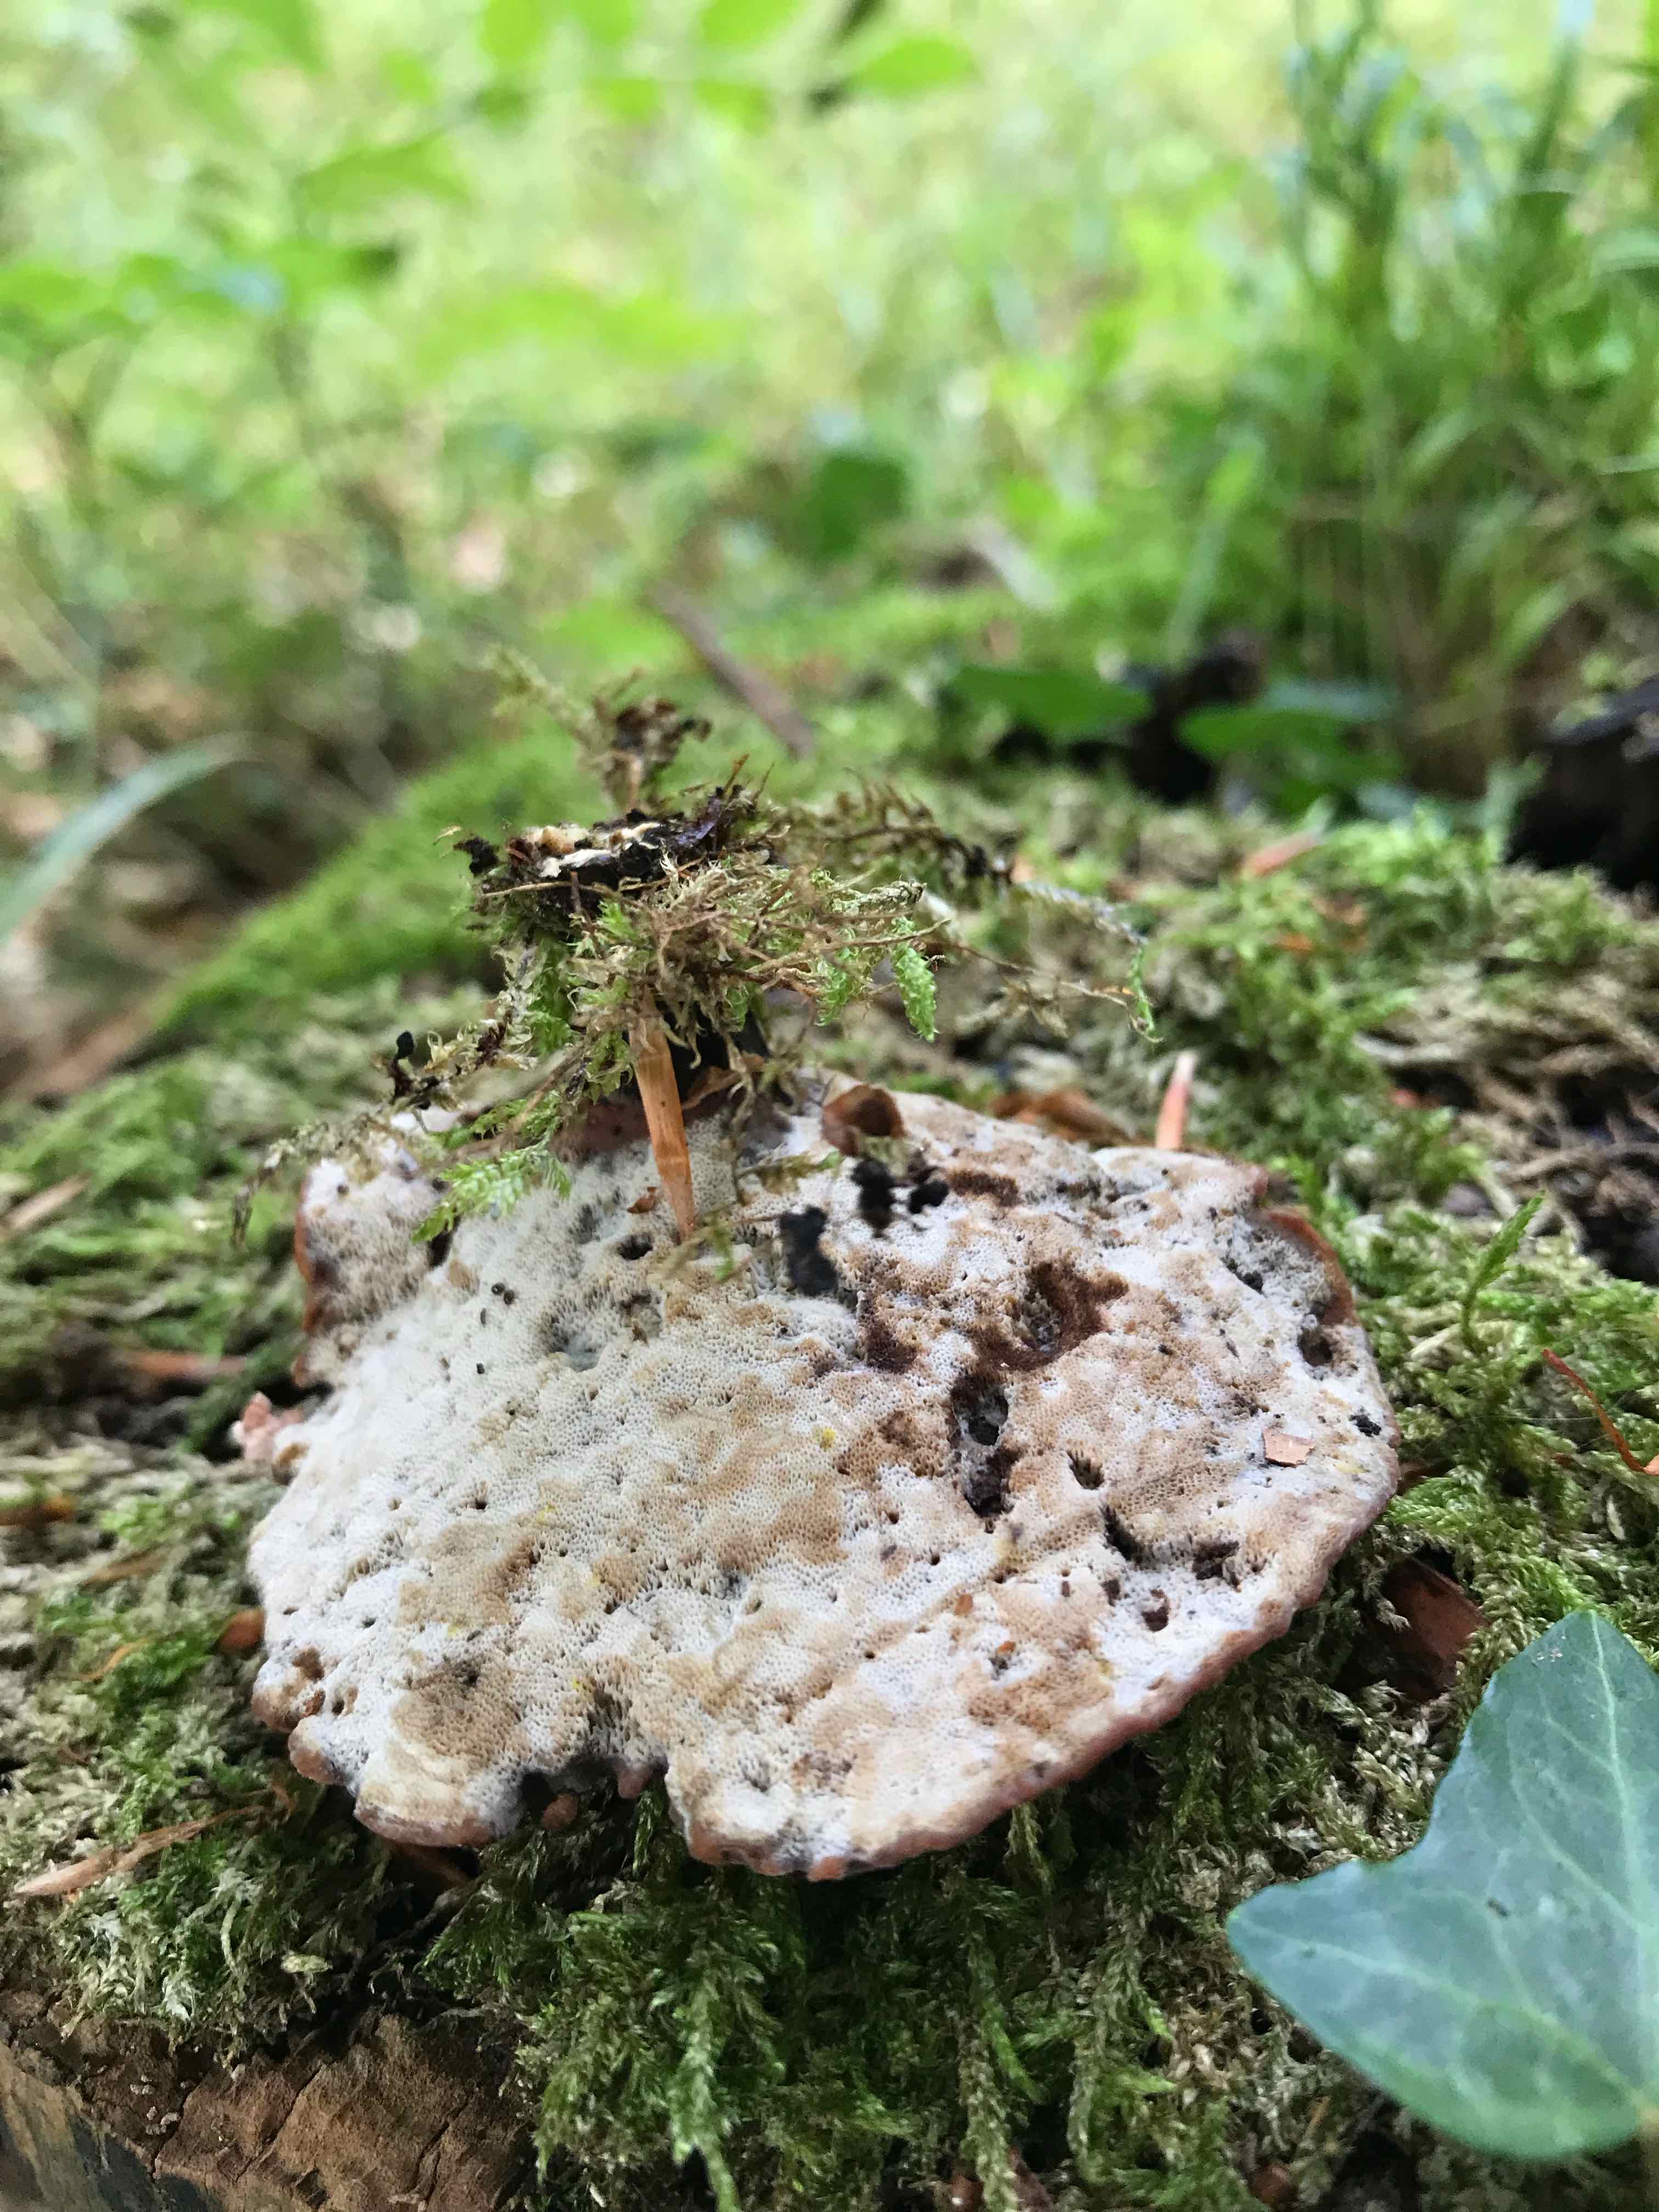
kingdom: Fungi
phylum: Basidiomycota
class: Agaricomycetes
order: Polyporales
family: Polyporaceae
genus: Cerioporus
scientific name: Cerioporus varius
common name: foranderlig stilkporesvamp
